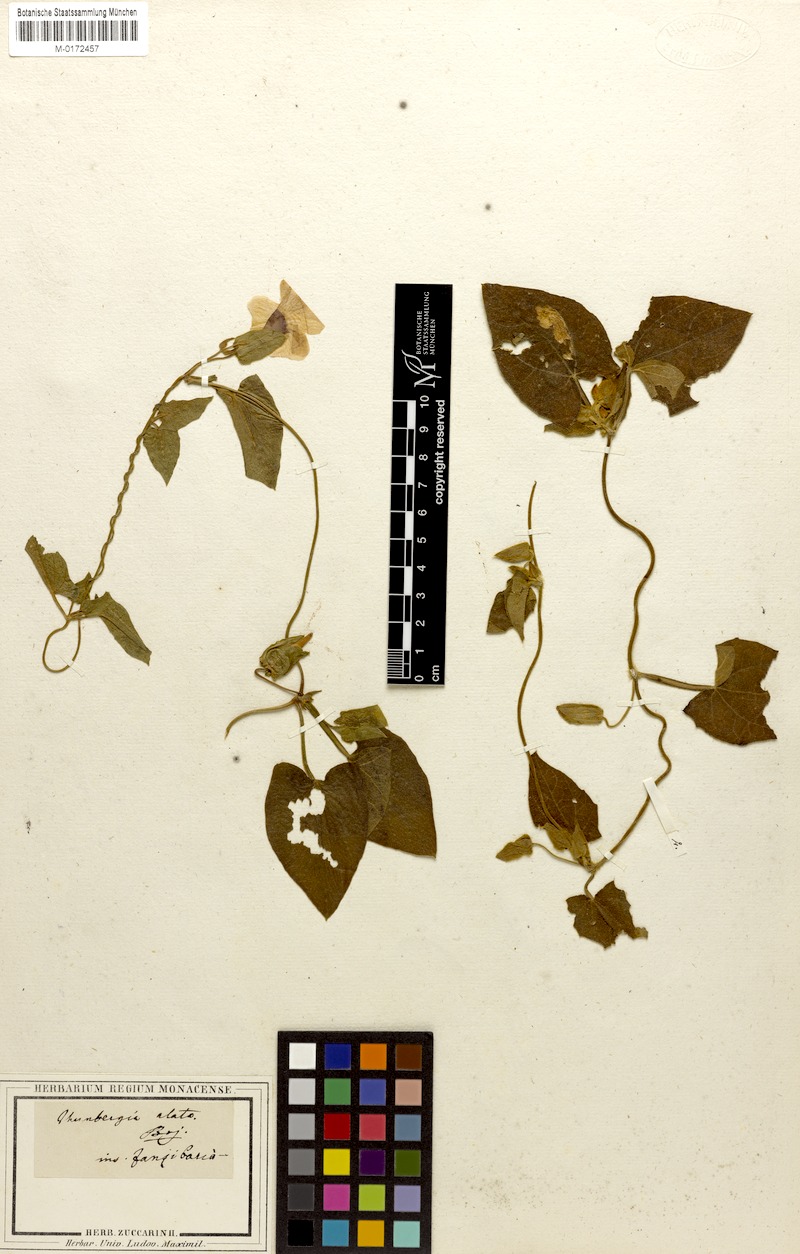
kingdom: Plantae
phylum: Tracheophyta
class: Magnoliopsida
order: Lamiales
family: Acanthaceae
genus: Thunbergia
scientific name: Thunbergia alata
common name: Blackeyed susan vine
